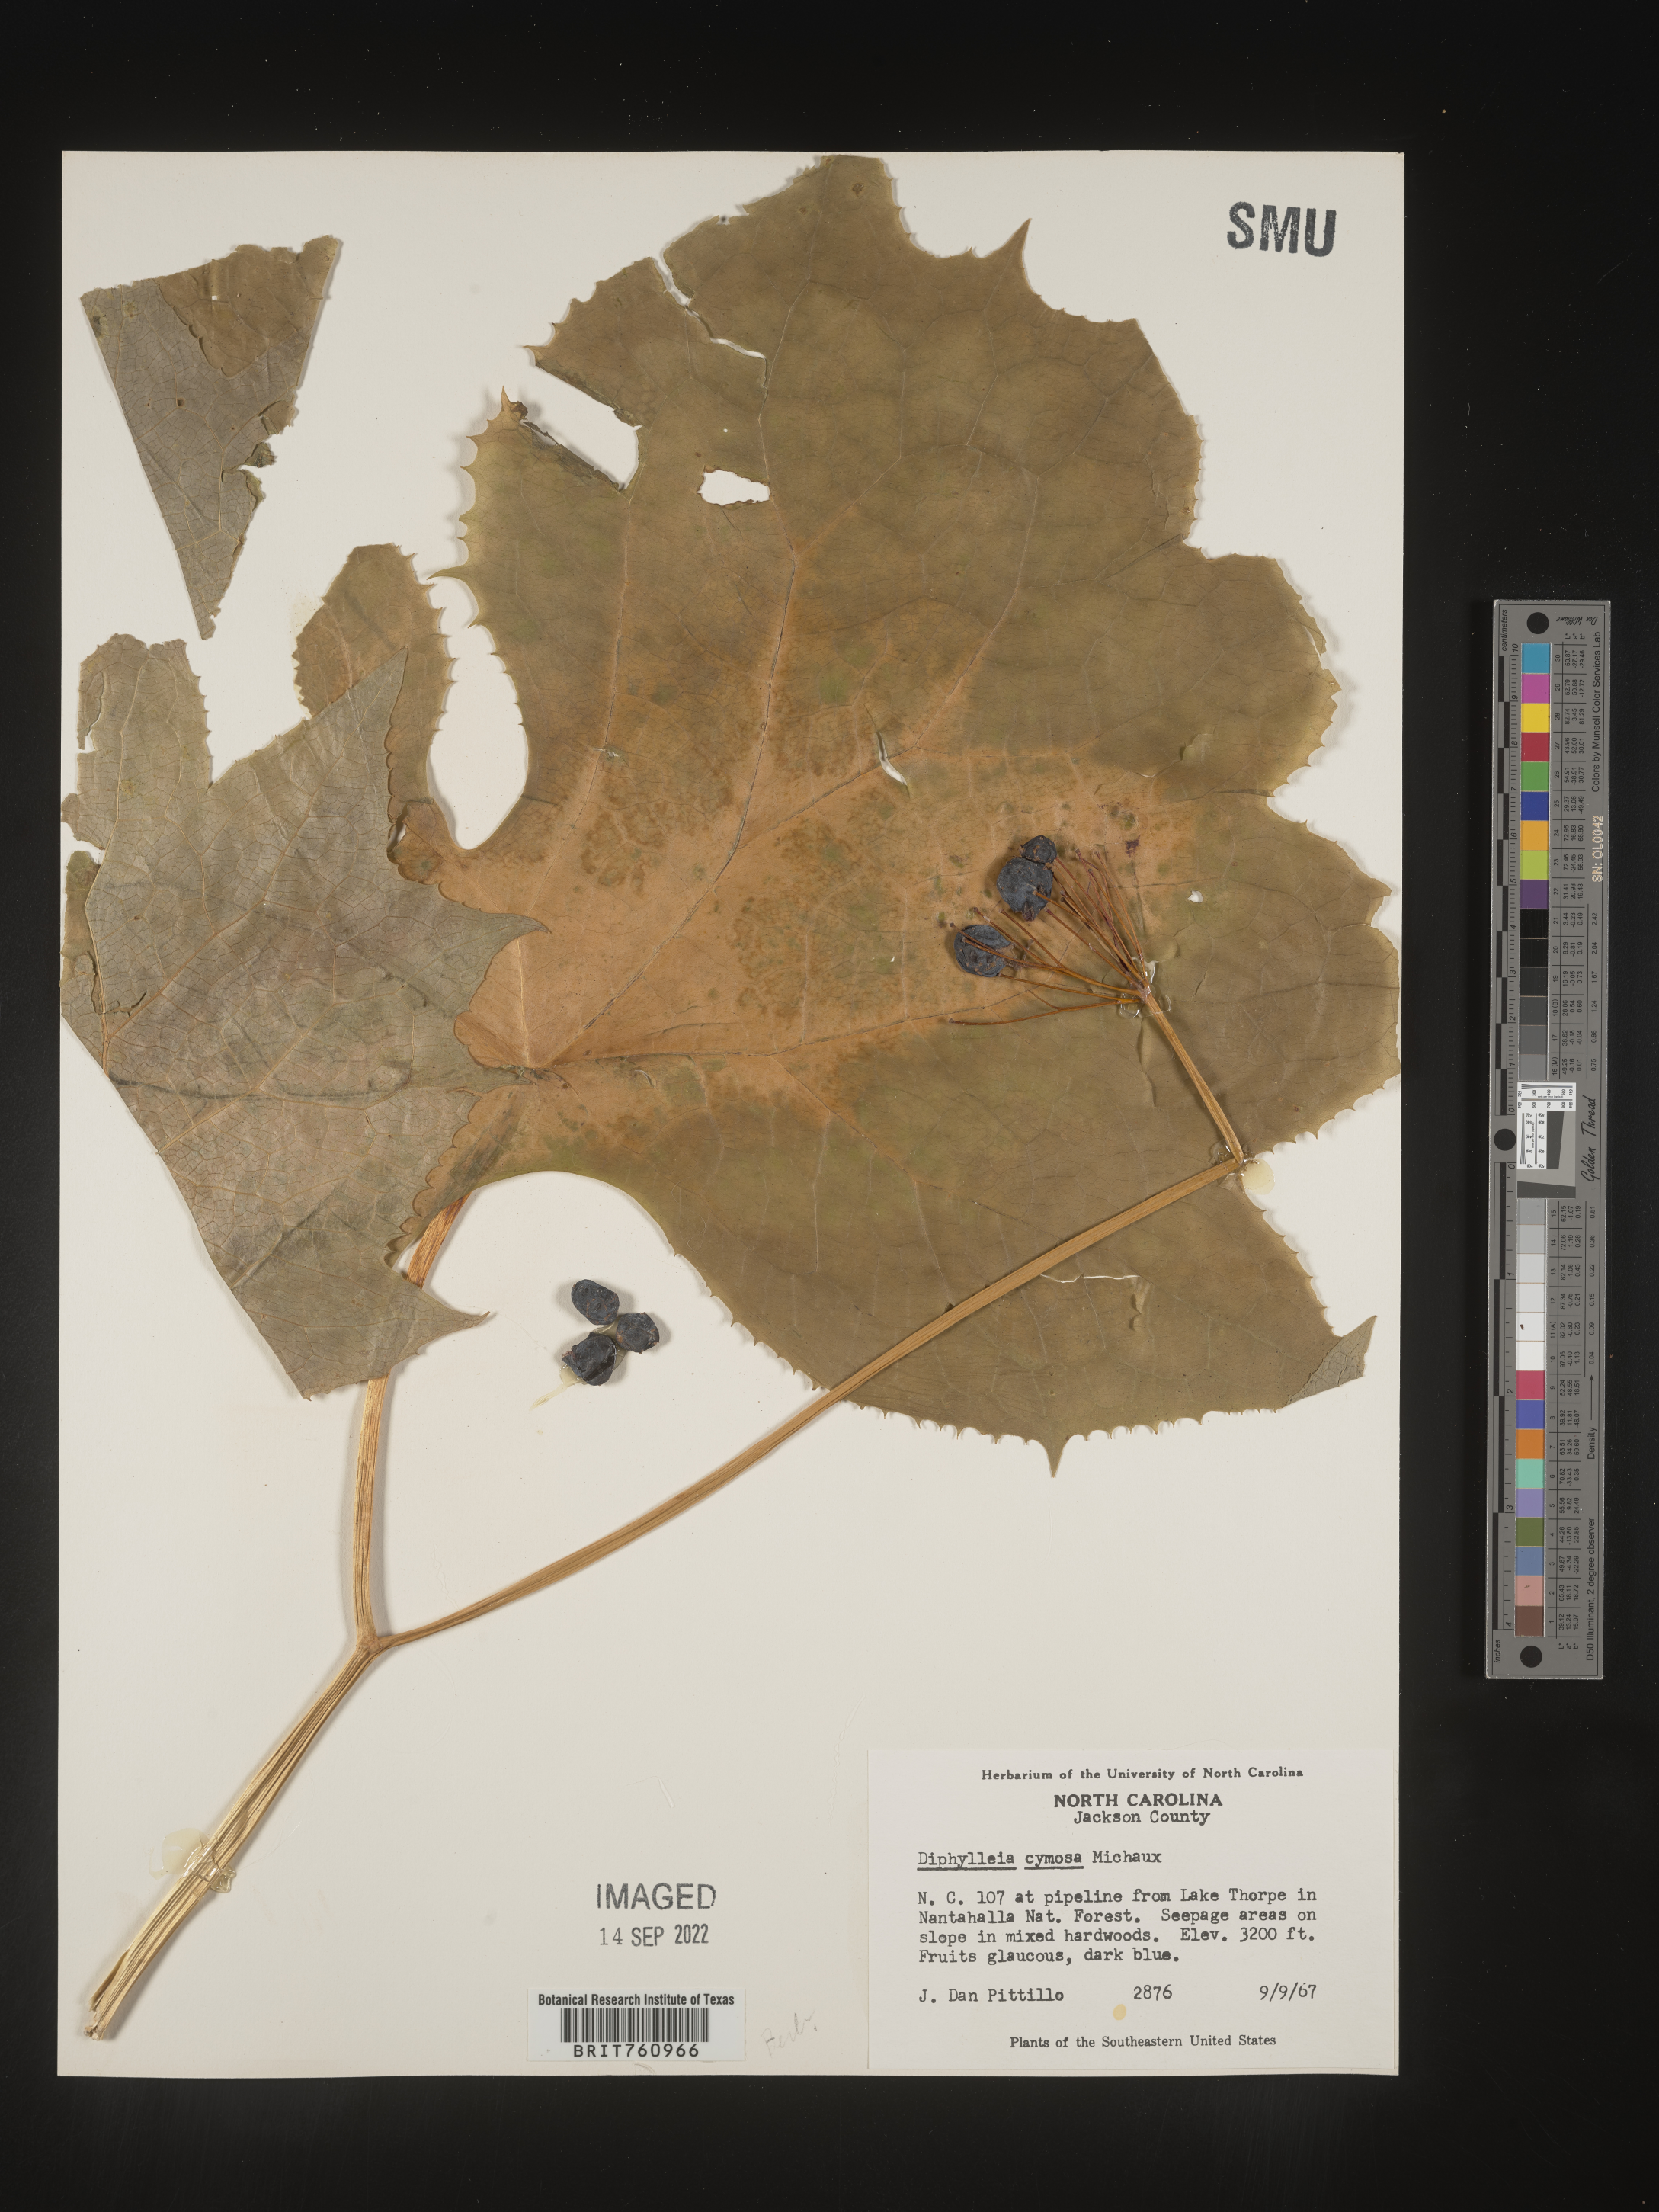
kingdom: Plantae
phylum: Tracheophyta
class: Magnoliopsida
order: Ranunculales
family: Berberidaceae
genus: Diphylleia
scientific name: Diphylleia
